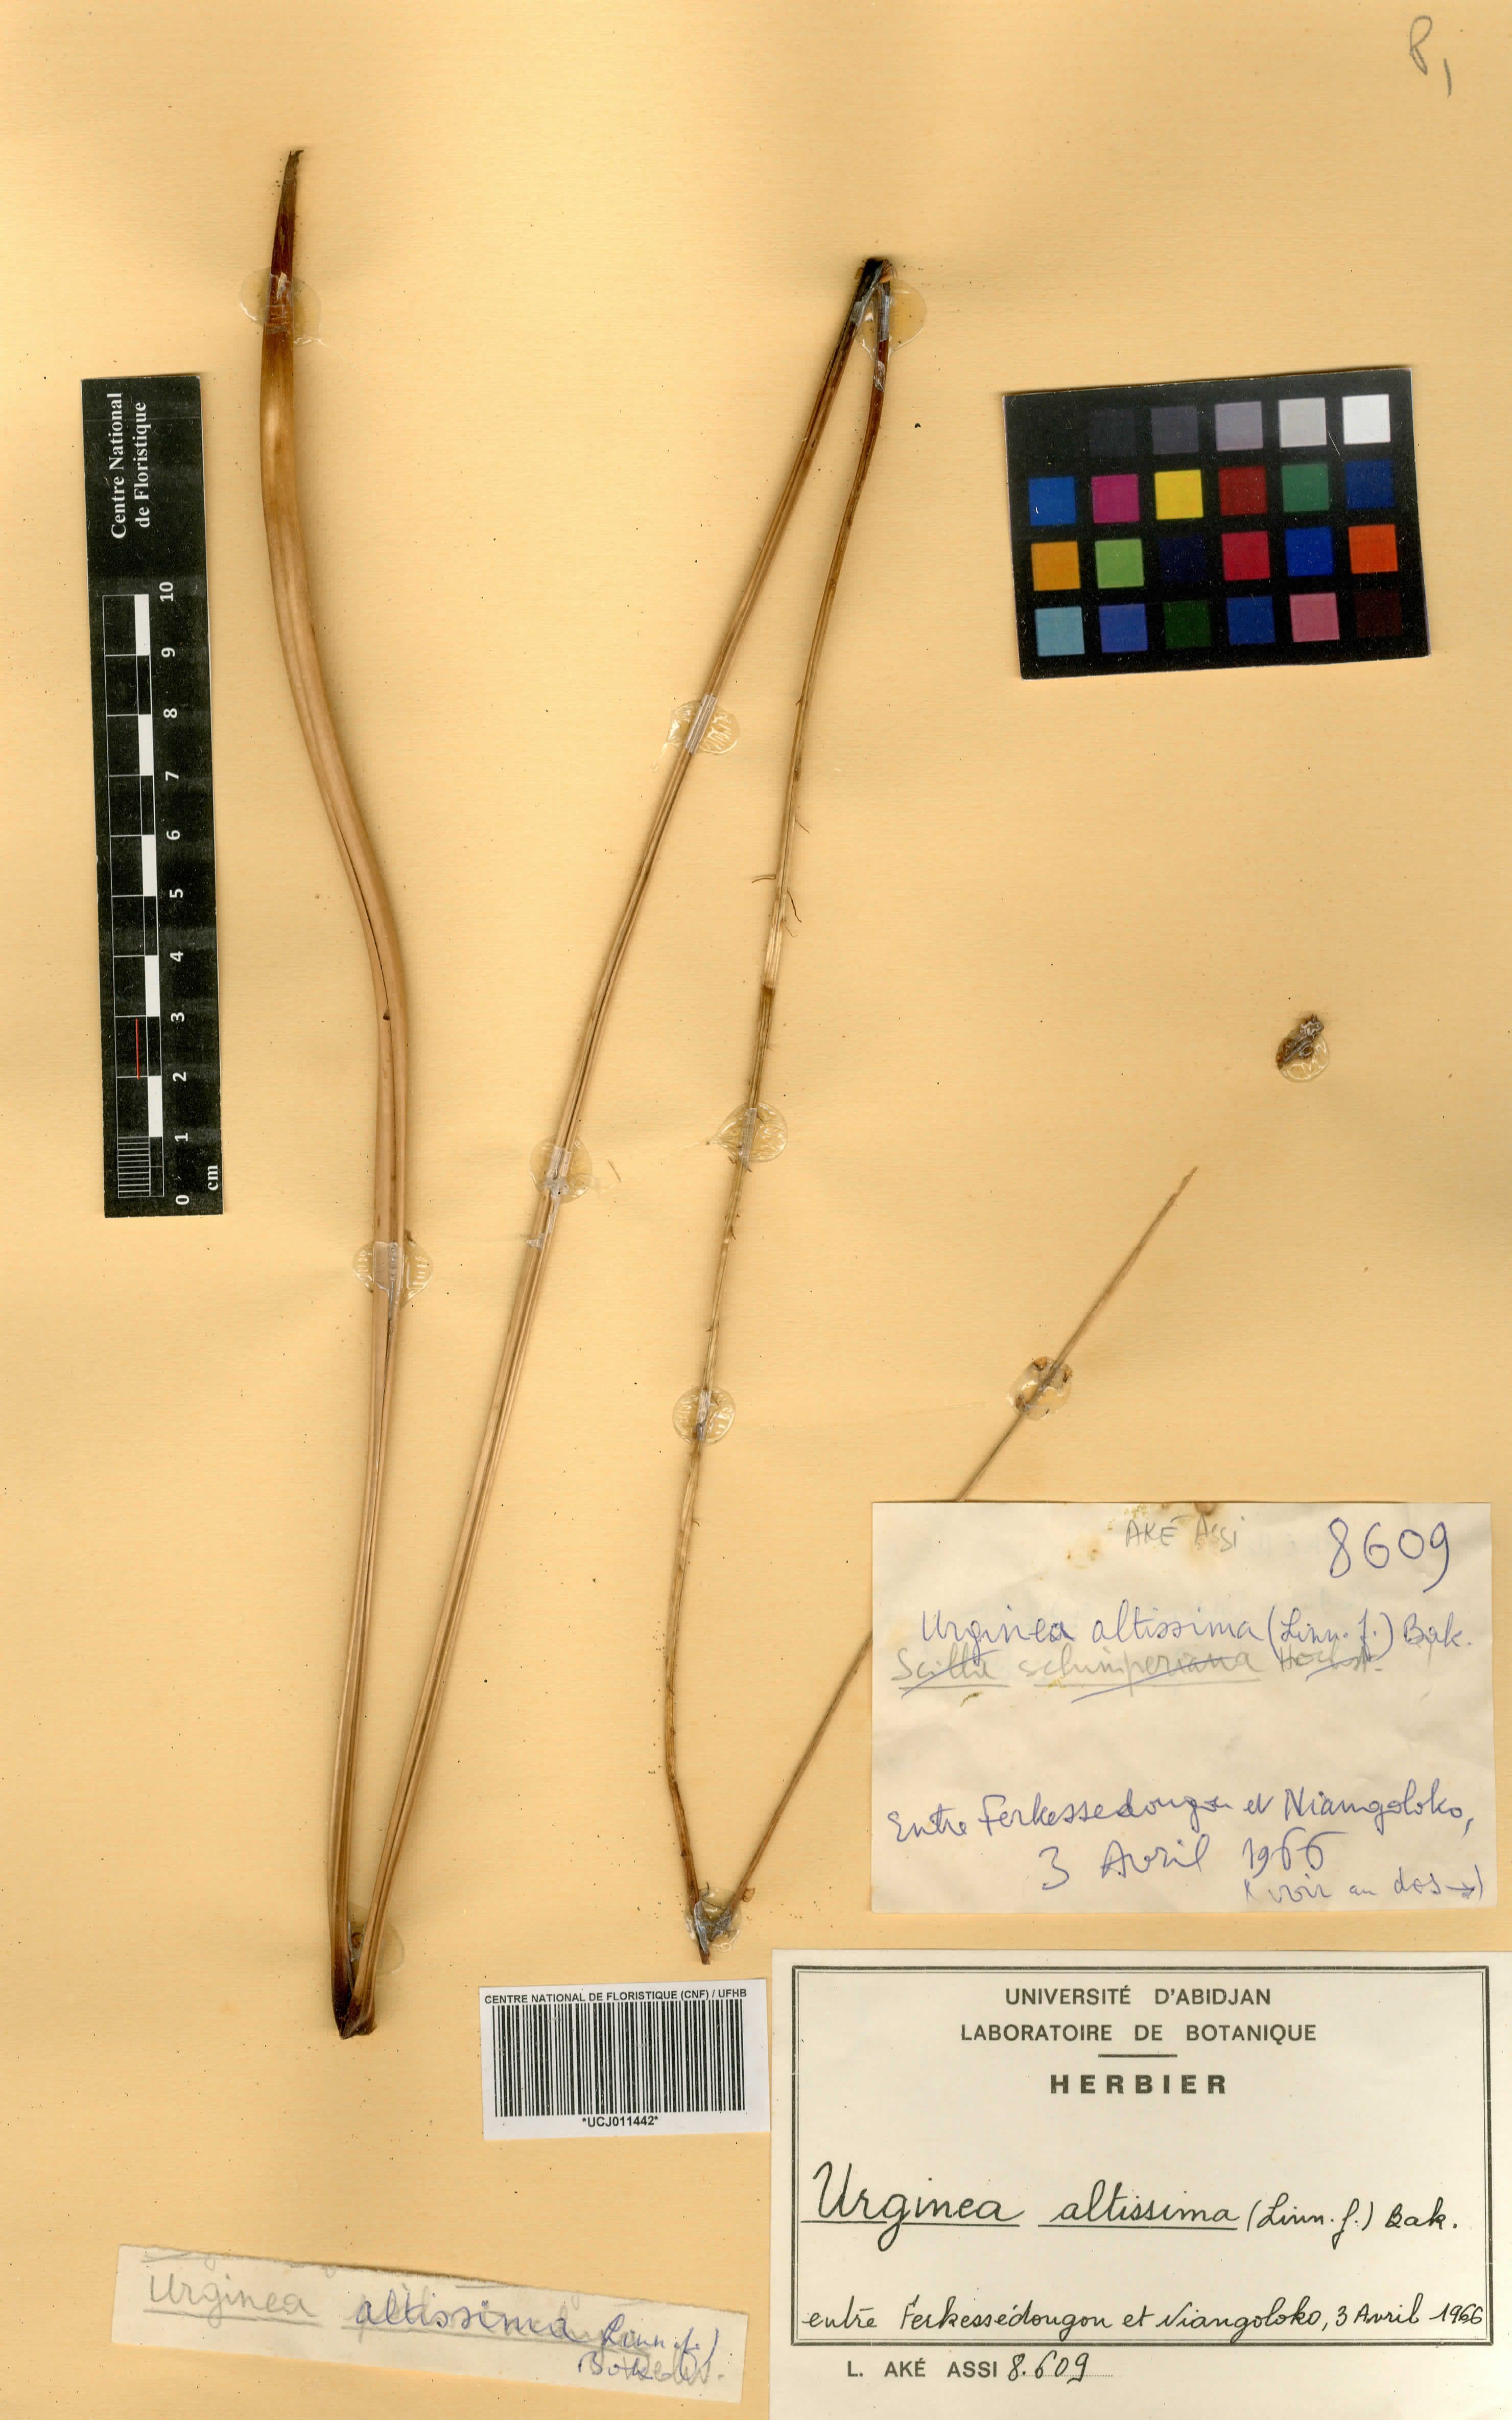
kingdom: Plantae
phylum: Tracheophyta
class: Liliopsida
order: Asparagales
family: Asparagaceae
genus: Drimia
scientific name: Drimia altissima
